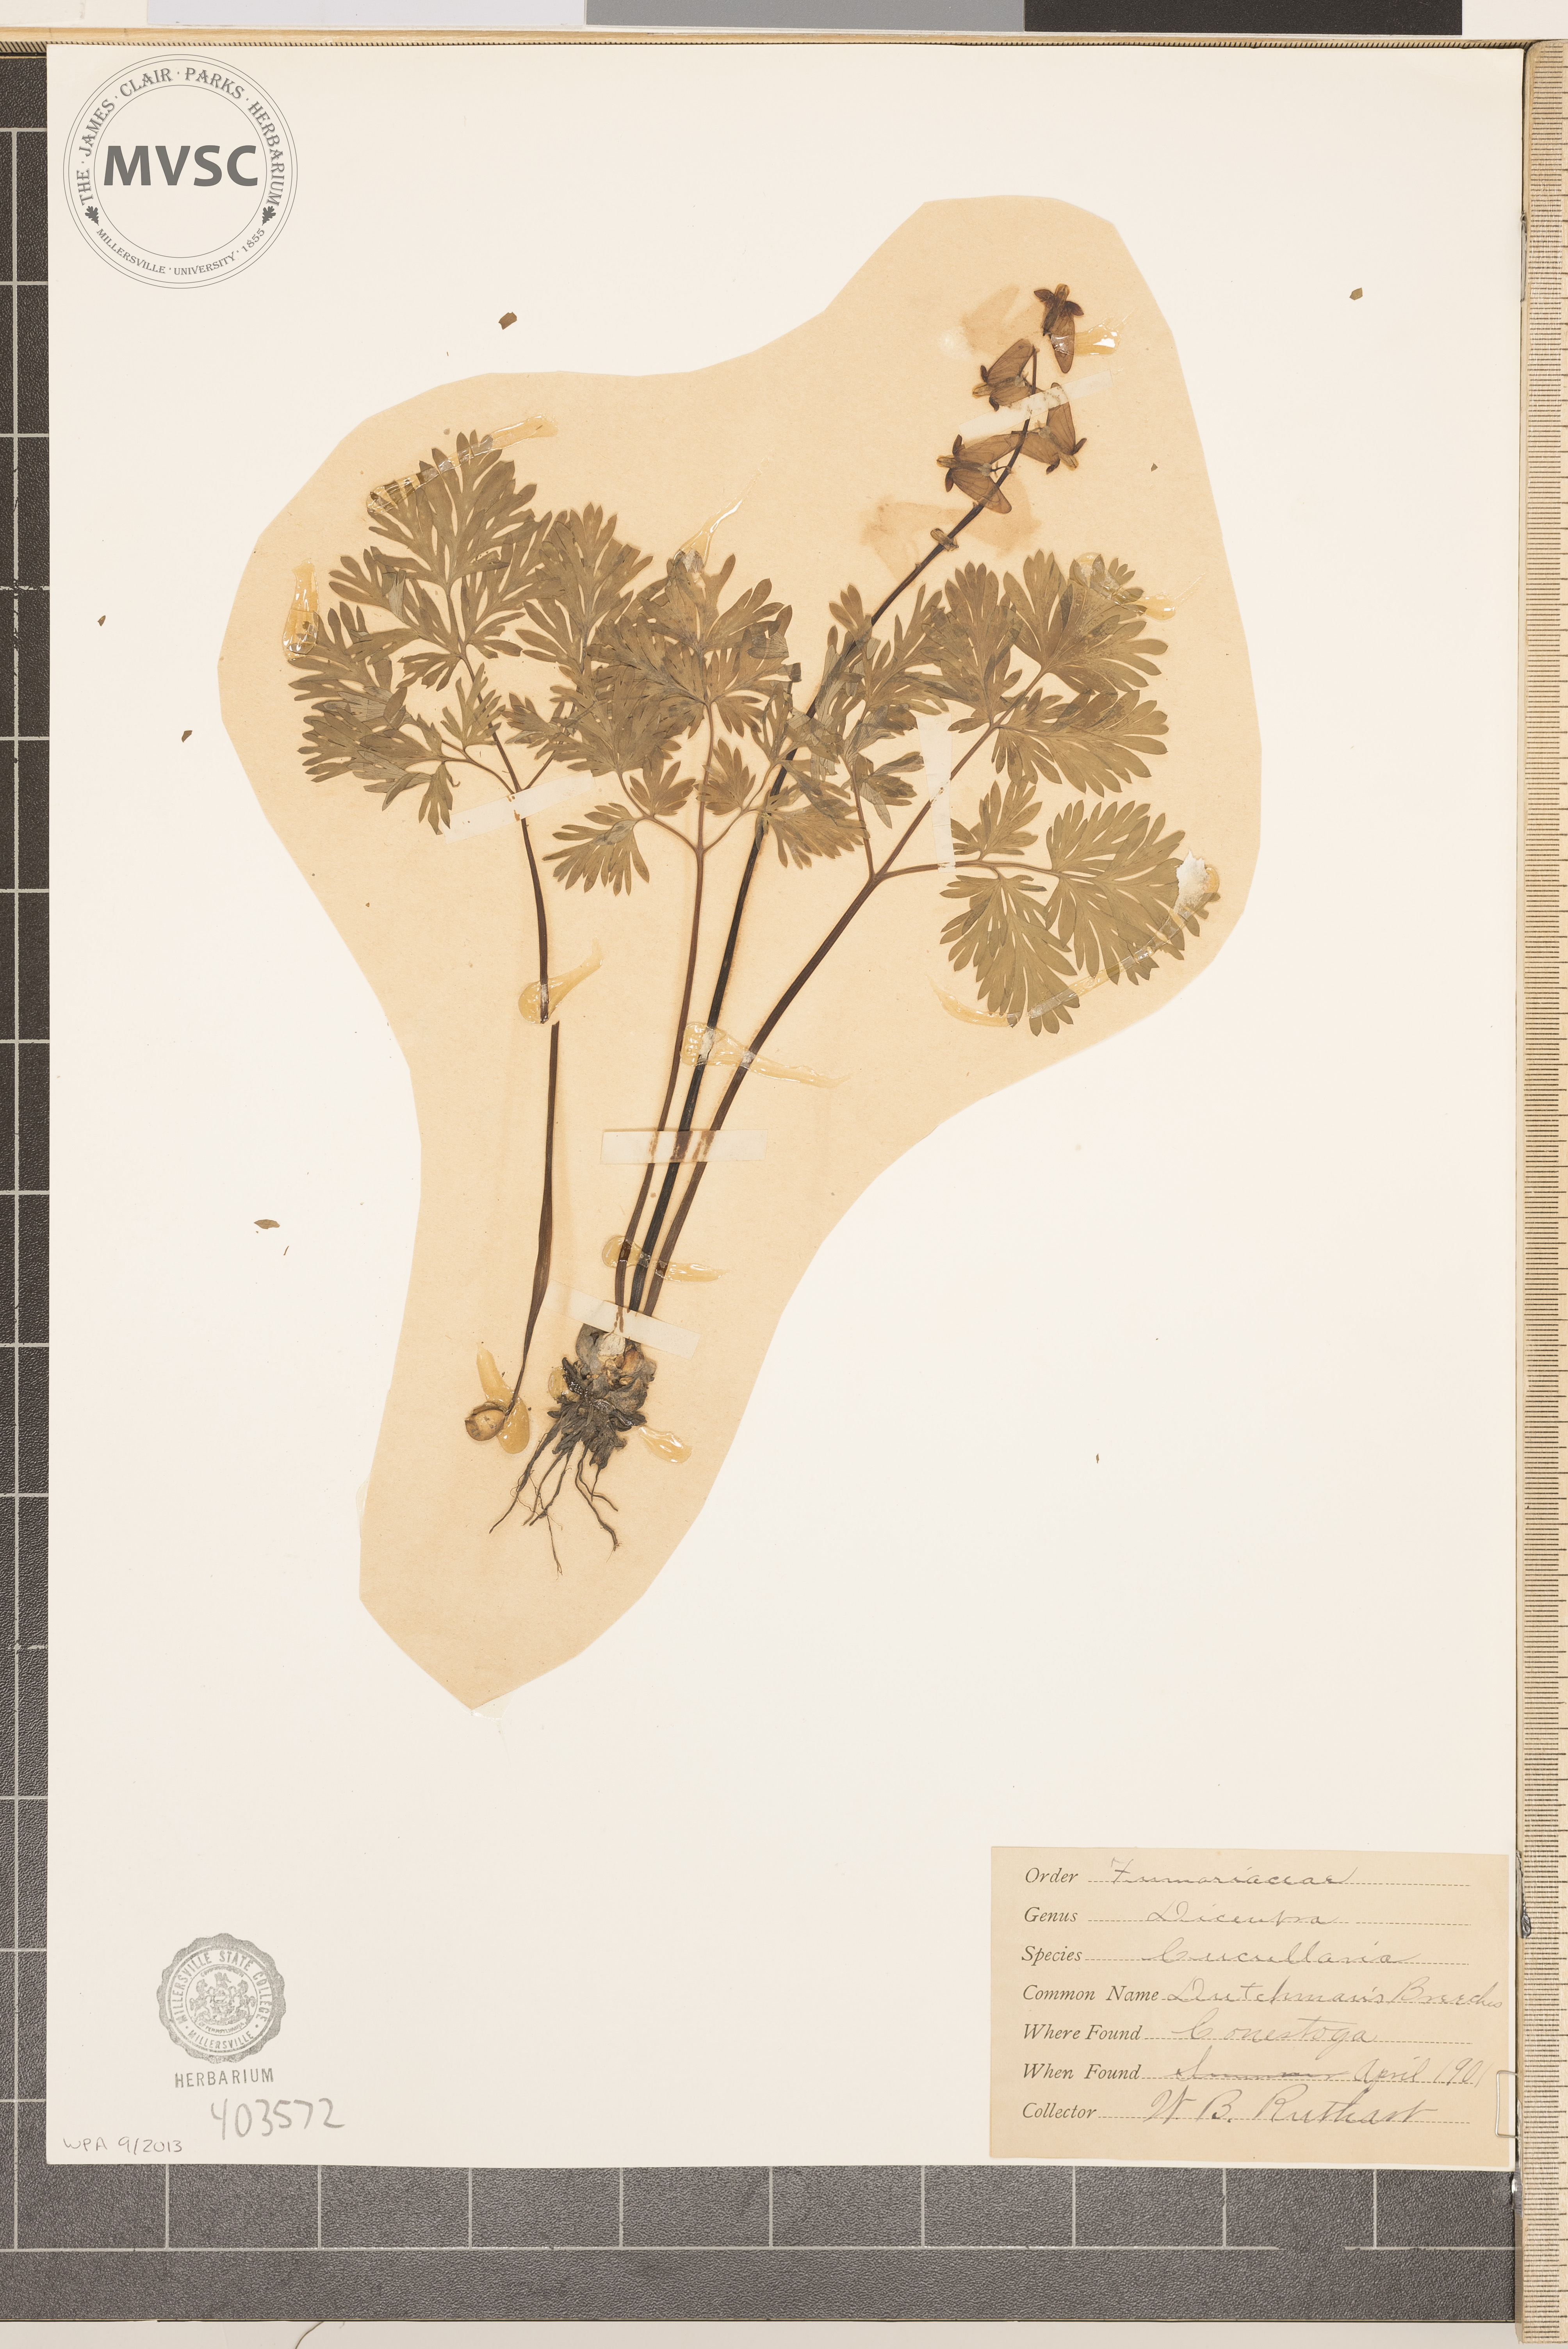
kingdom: Plantae
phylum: Tracheophyta
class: Magnoliopsida
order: Ranunculales
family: Papaveraceae
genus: Dicentra
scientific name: Dicentra cucullaria
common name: Dutchman's breeches
